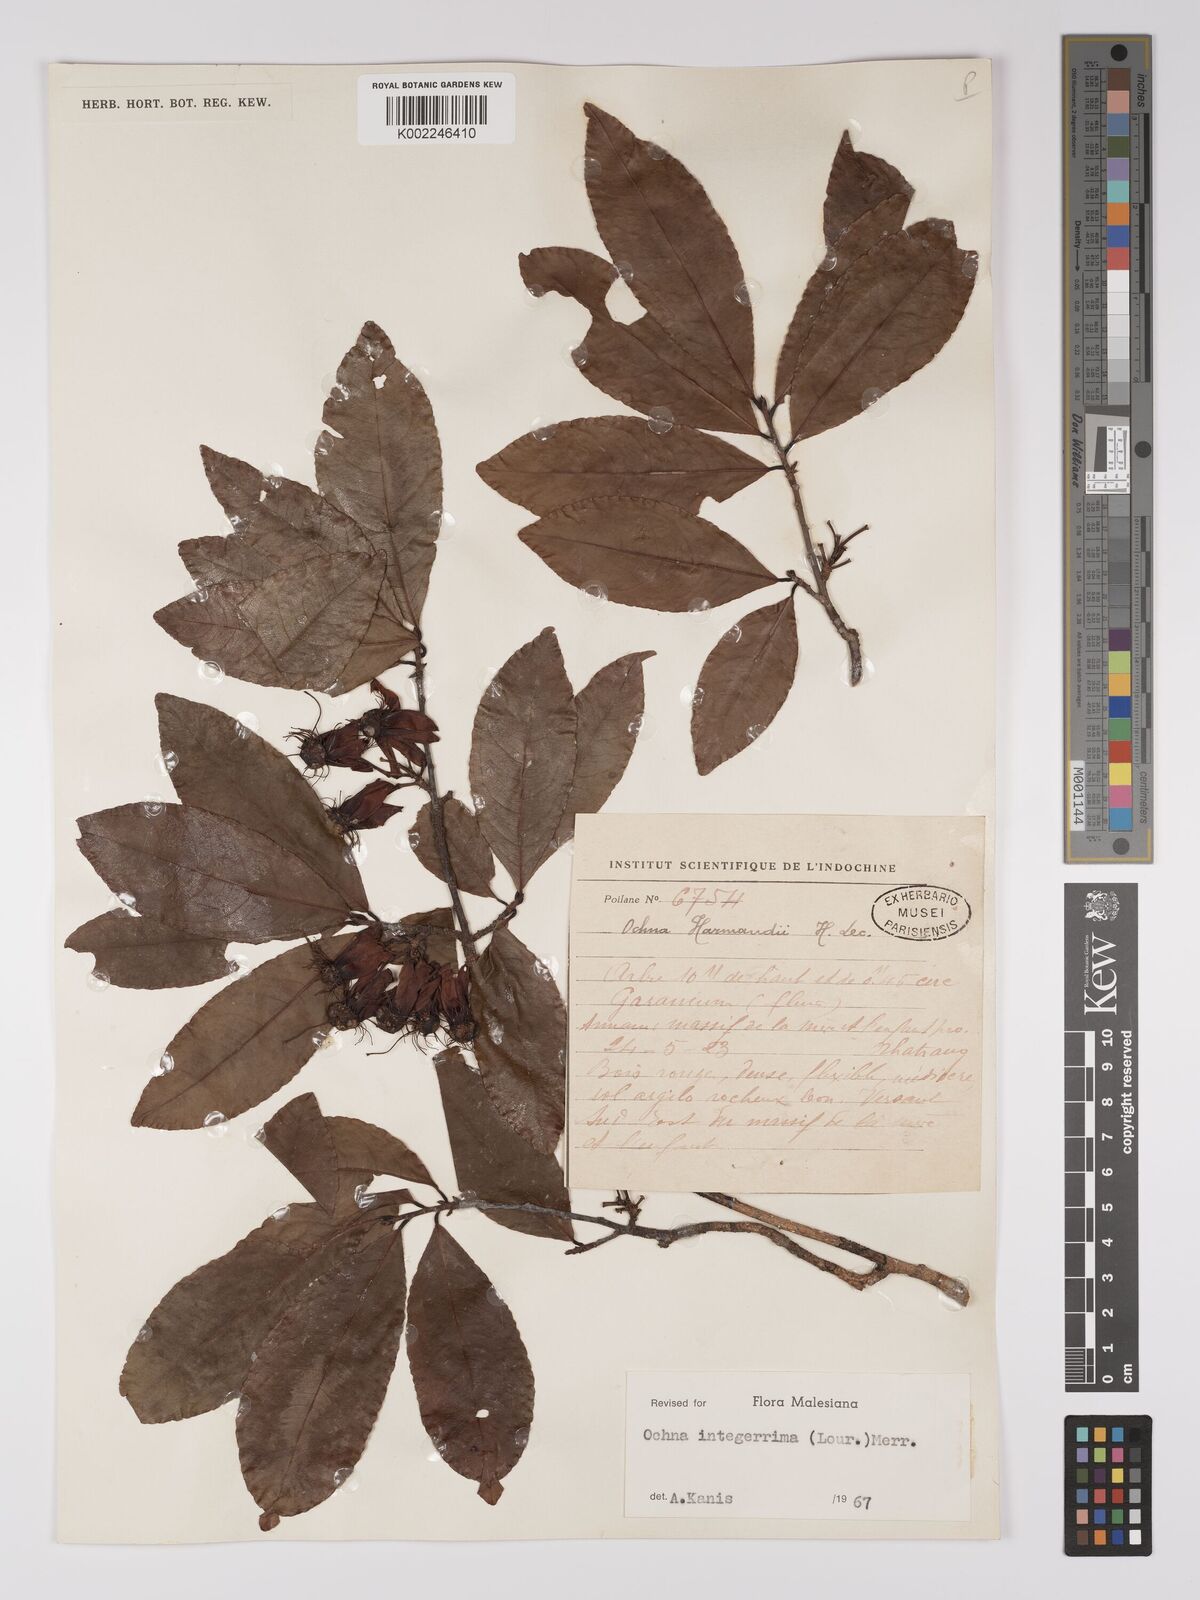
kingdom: Plantae
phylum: Tracheophyta
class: Magnoliopsida
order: Malpighiales
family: Ochnaceae
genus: Ochna
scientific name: Ochna integerrima
